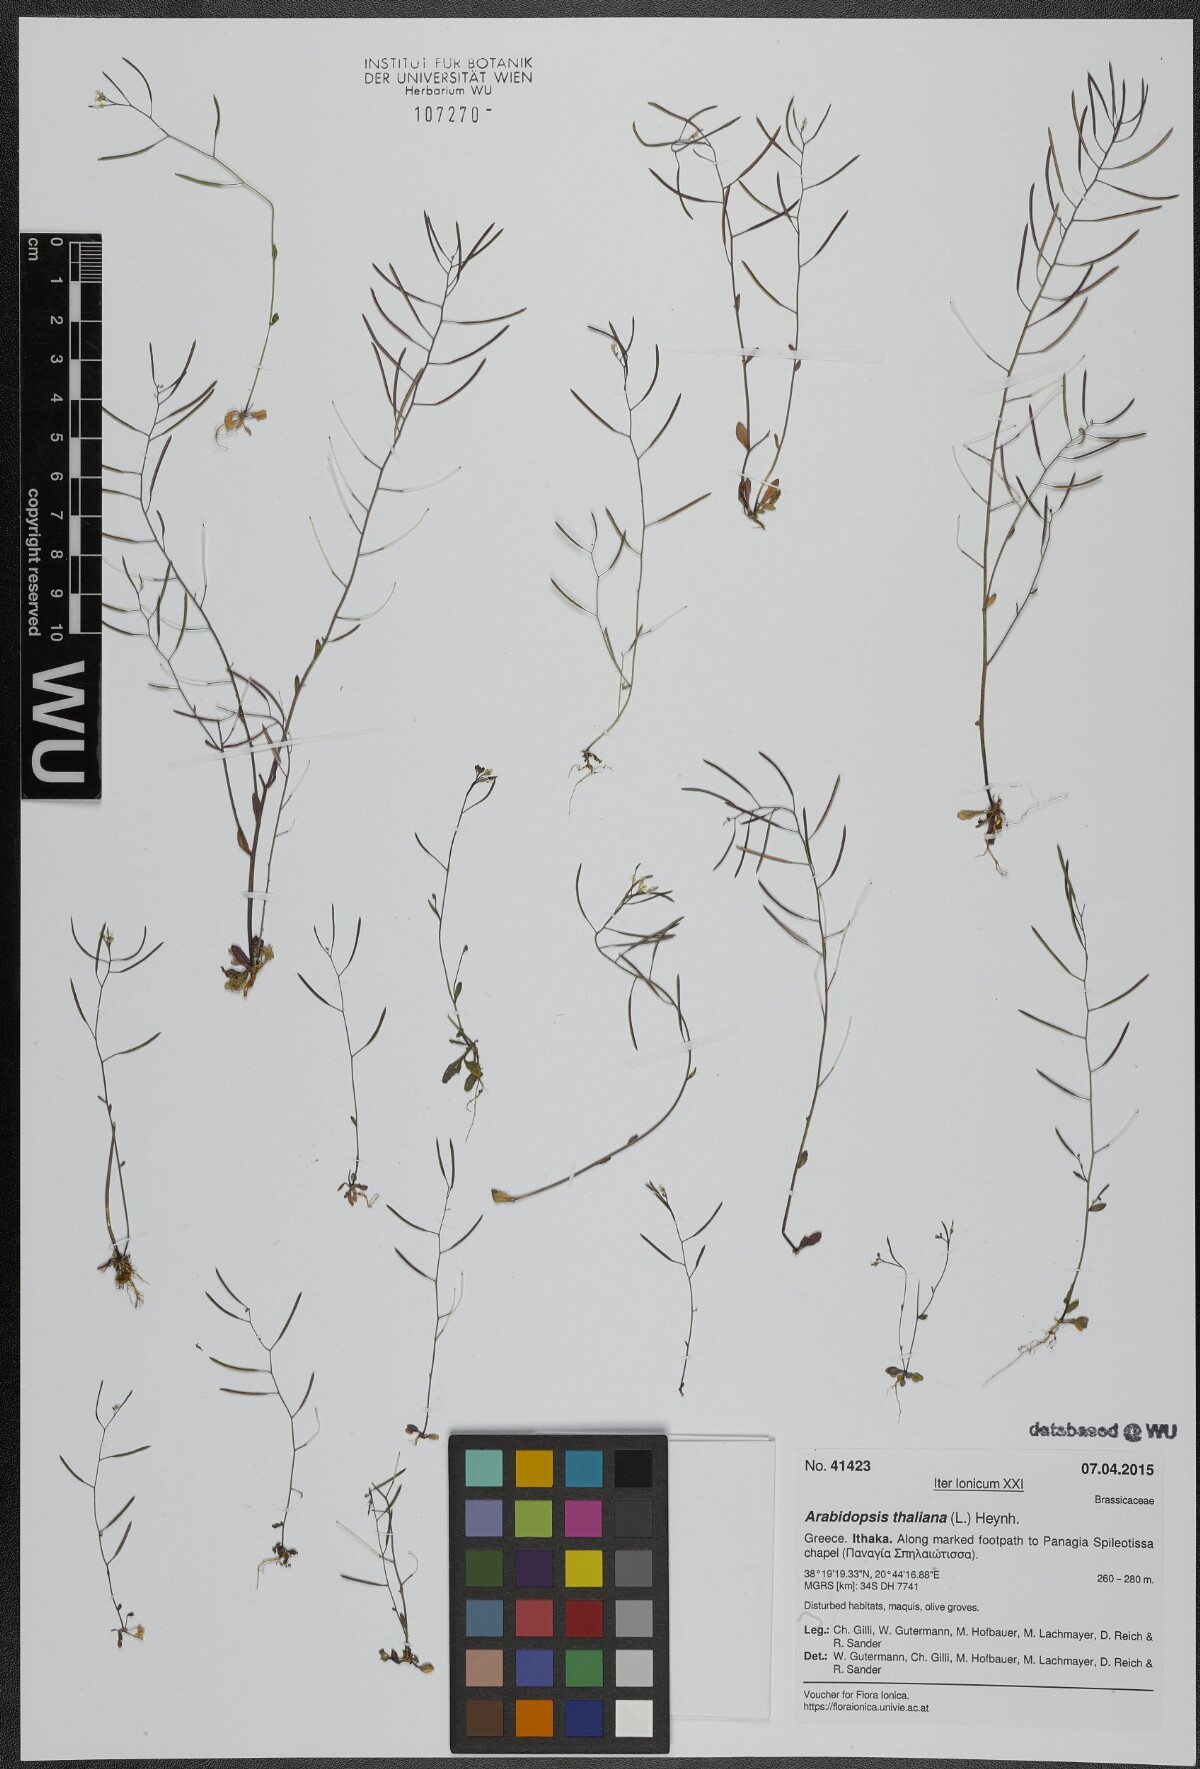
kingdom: Plantae
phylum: Tracheophyta
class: Magnoliopsida
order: Brassicales
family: Brassicaceae
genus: Arabidopsis
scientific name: Arabidopsis thaliana
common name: Thale cress
